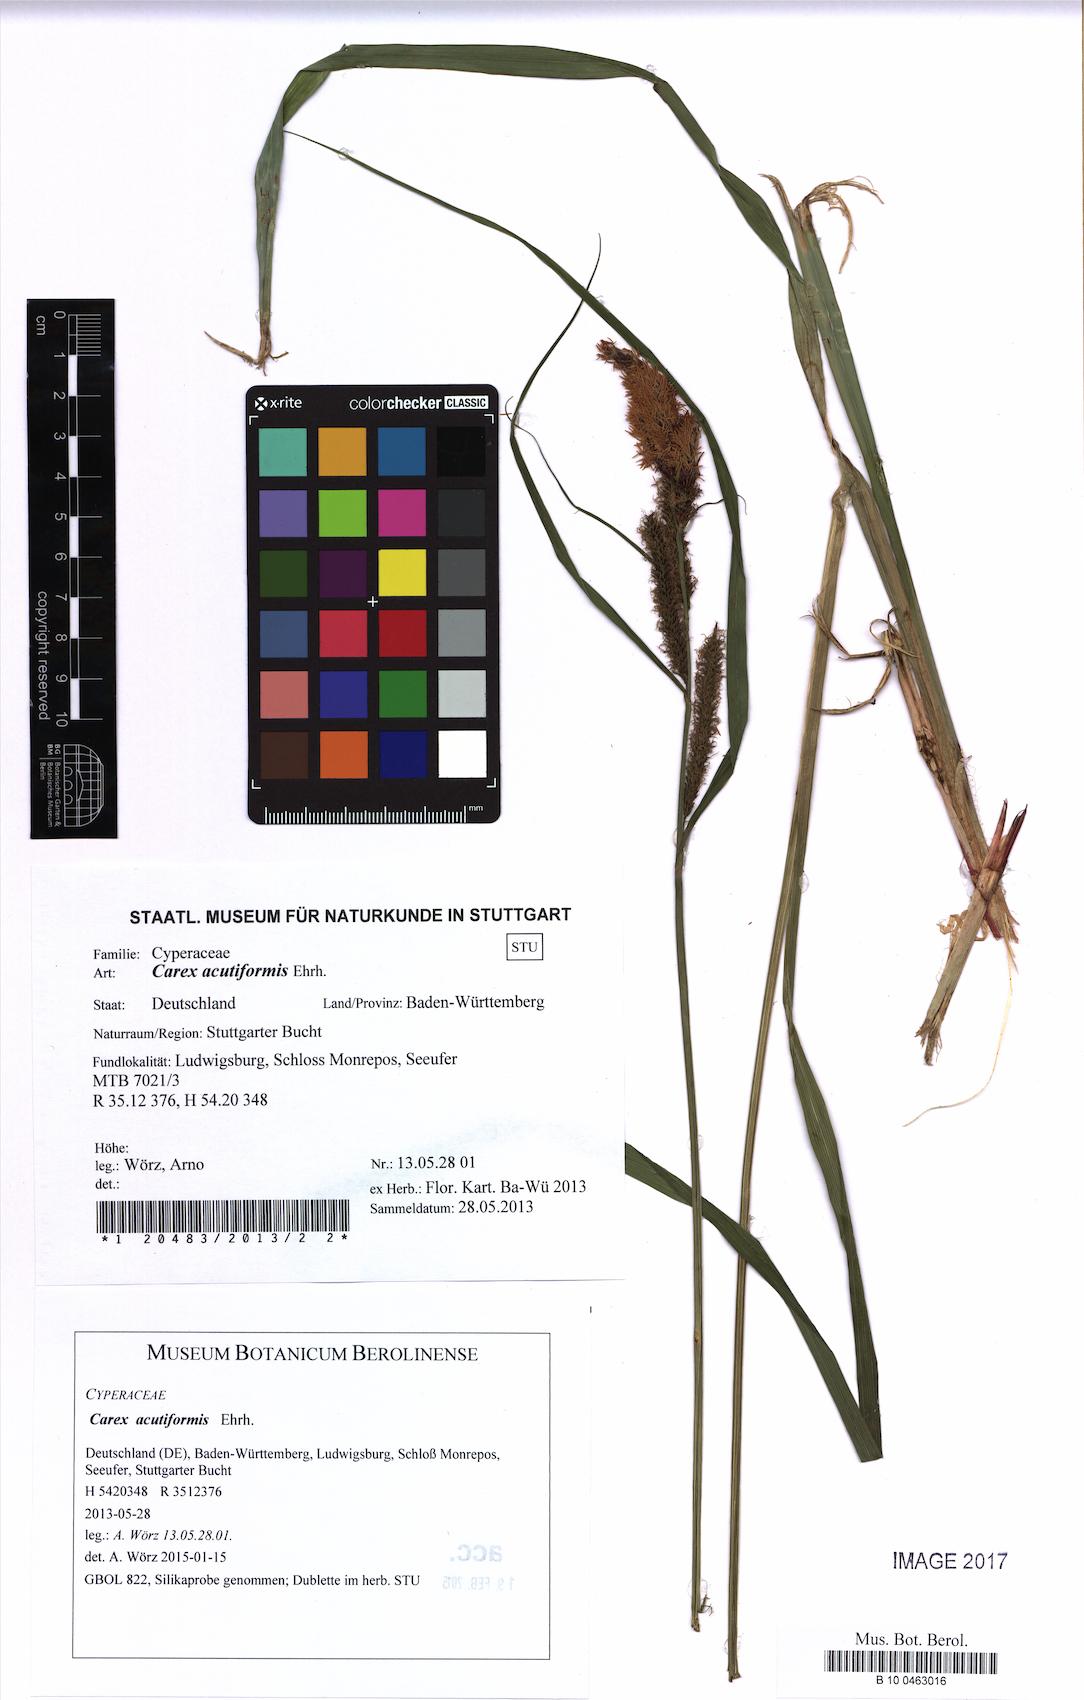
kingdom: Plantae
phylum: Tracheophyta
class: Liliopsida
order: Poales
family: Cyperaceae
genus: Carex
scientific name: Carex acutiformis
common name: Lesser pond-sedge
